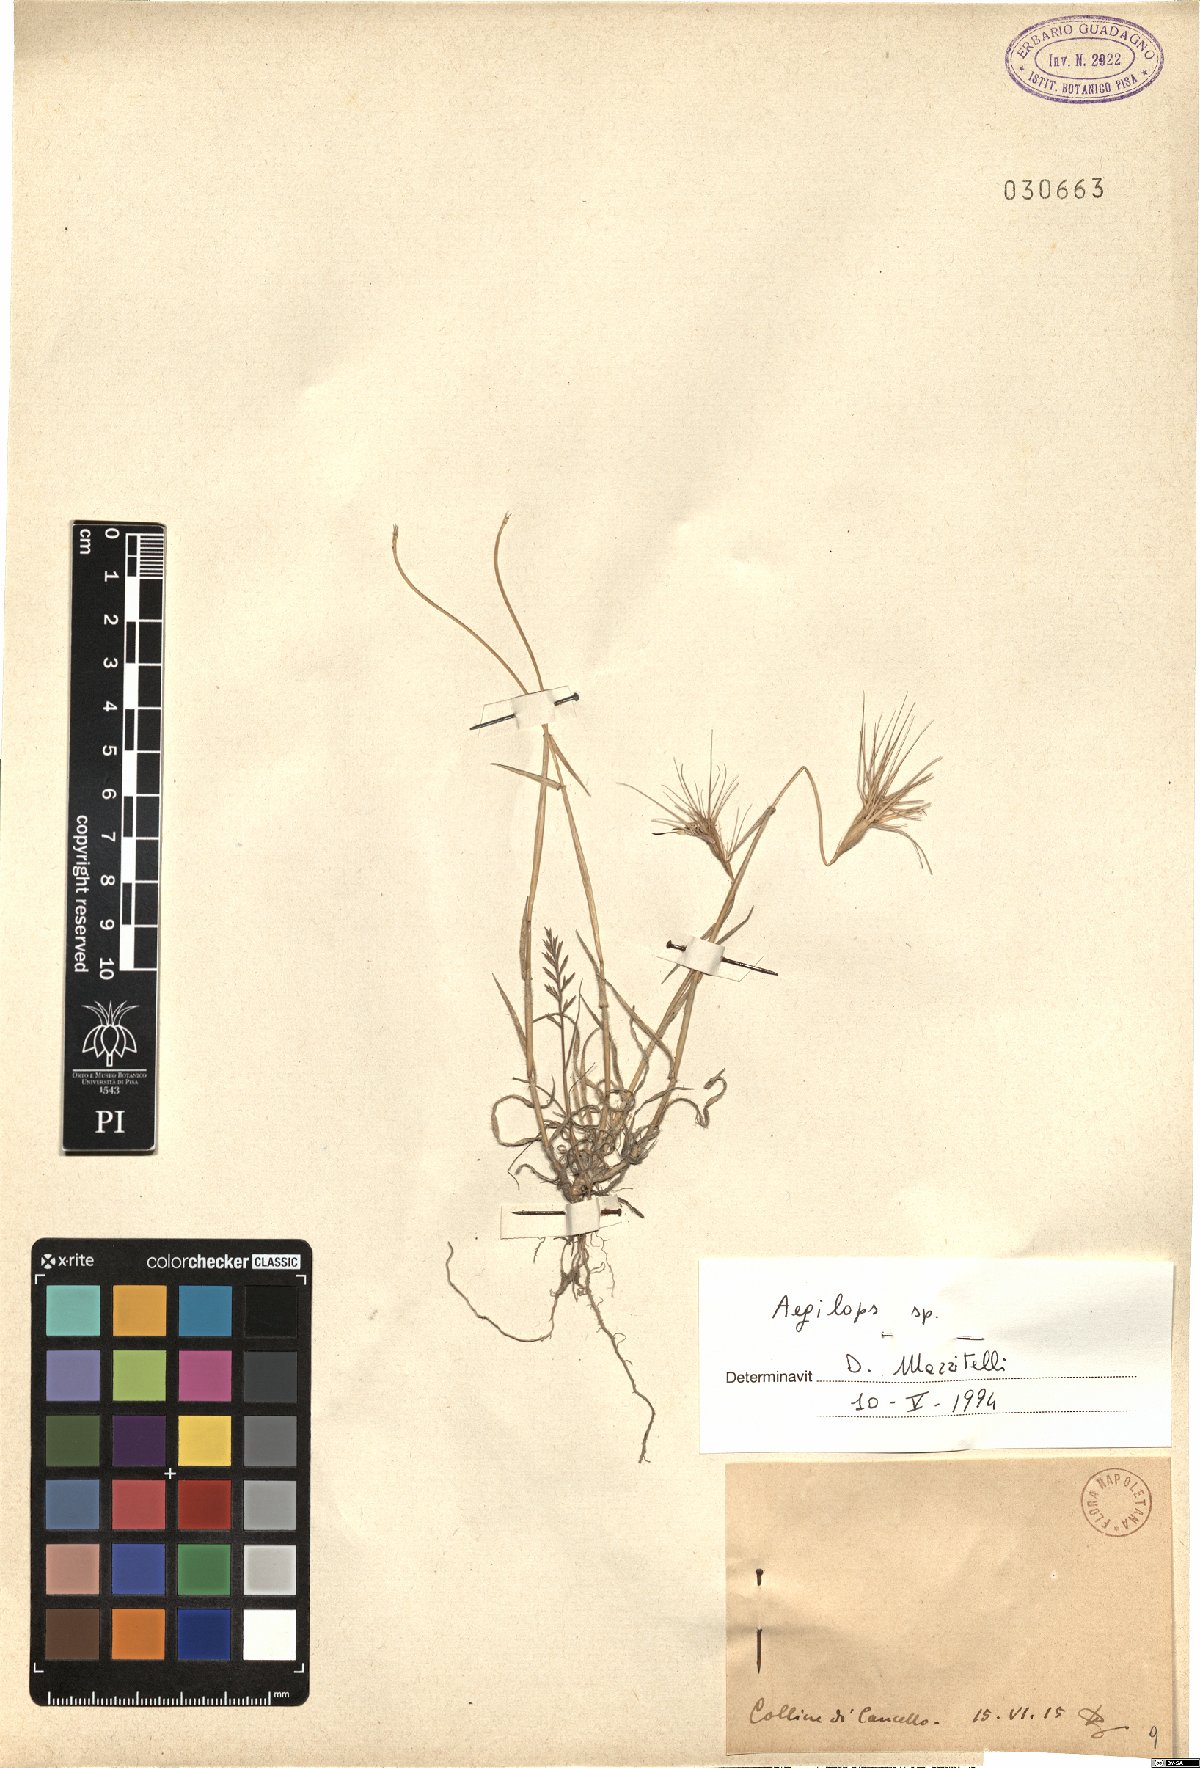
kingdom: Plantae
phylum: Tracheophyta
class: Liliopsida
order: Poales
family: Poaceae
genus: Aegilops
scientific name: Aegilops
